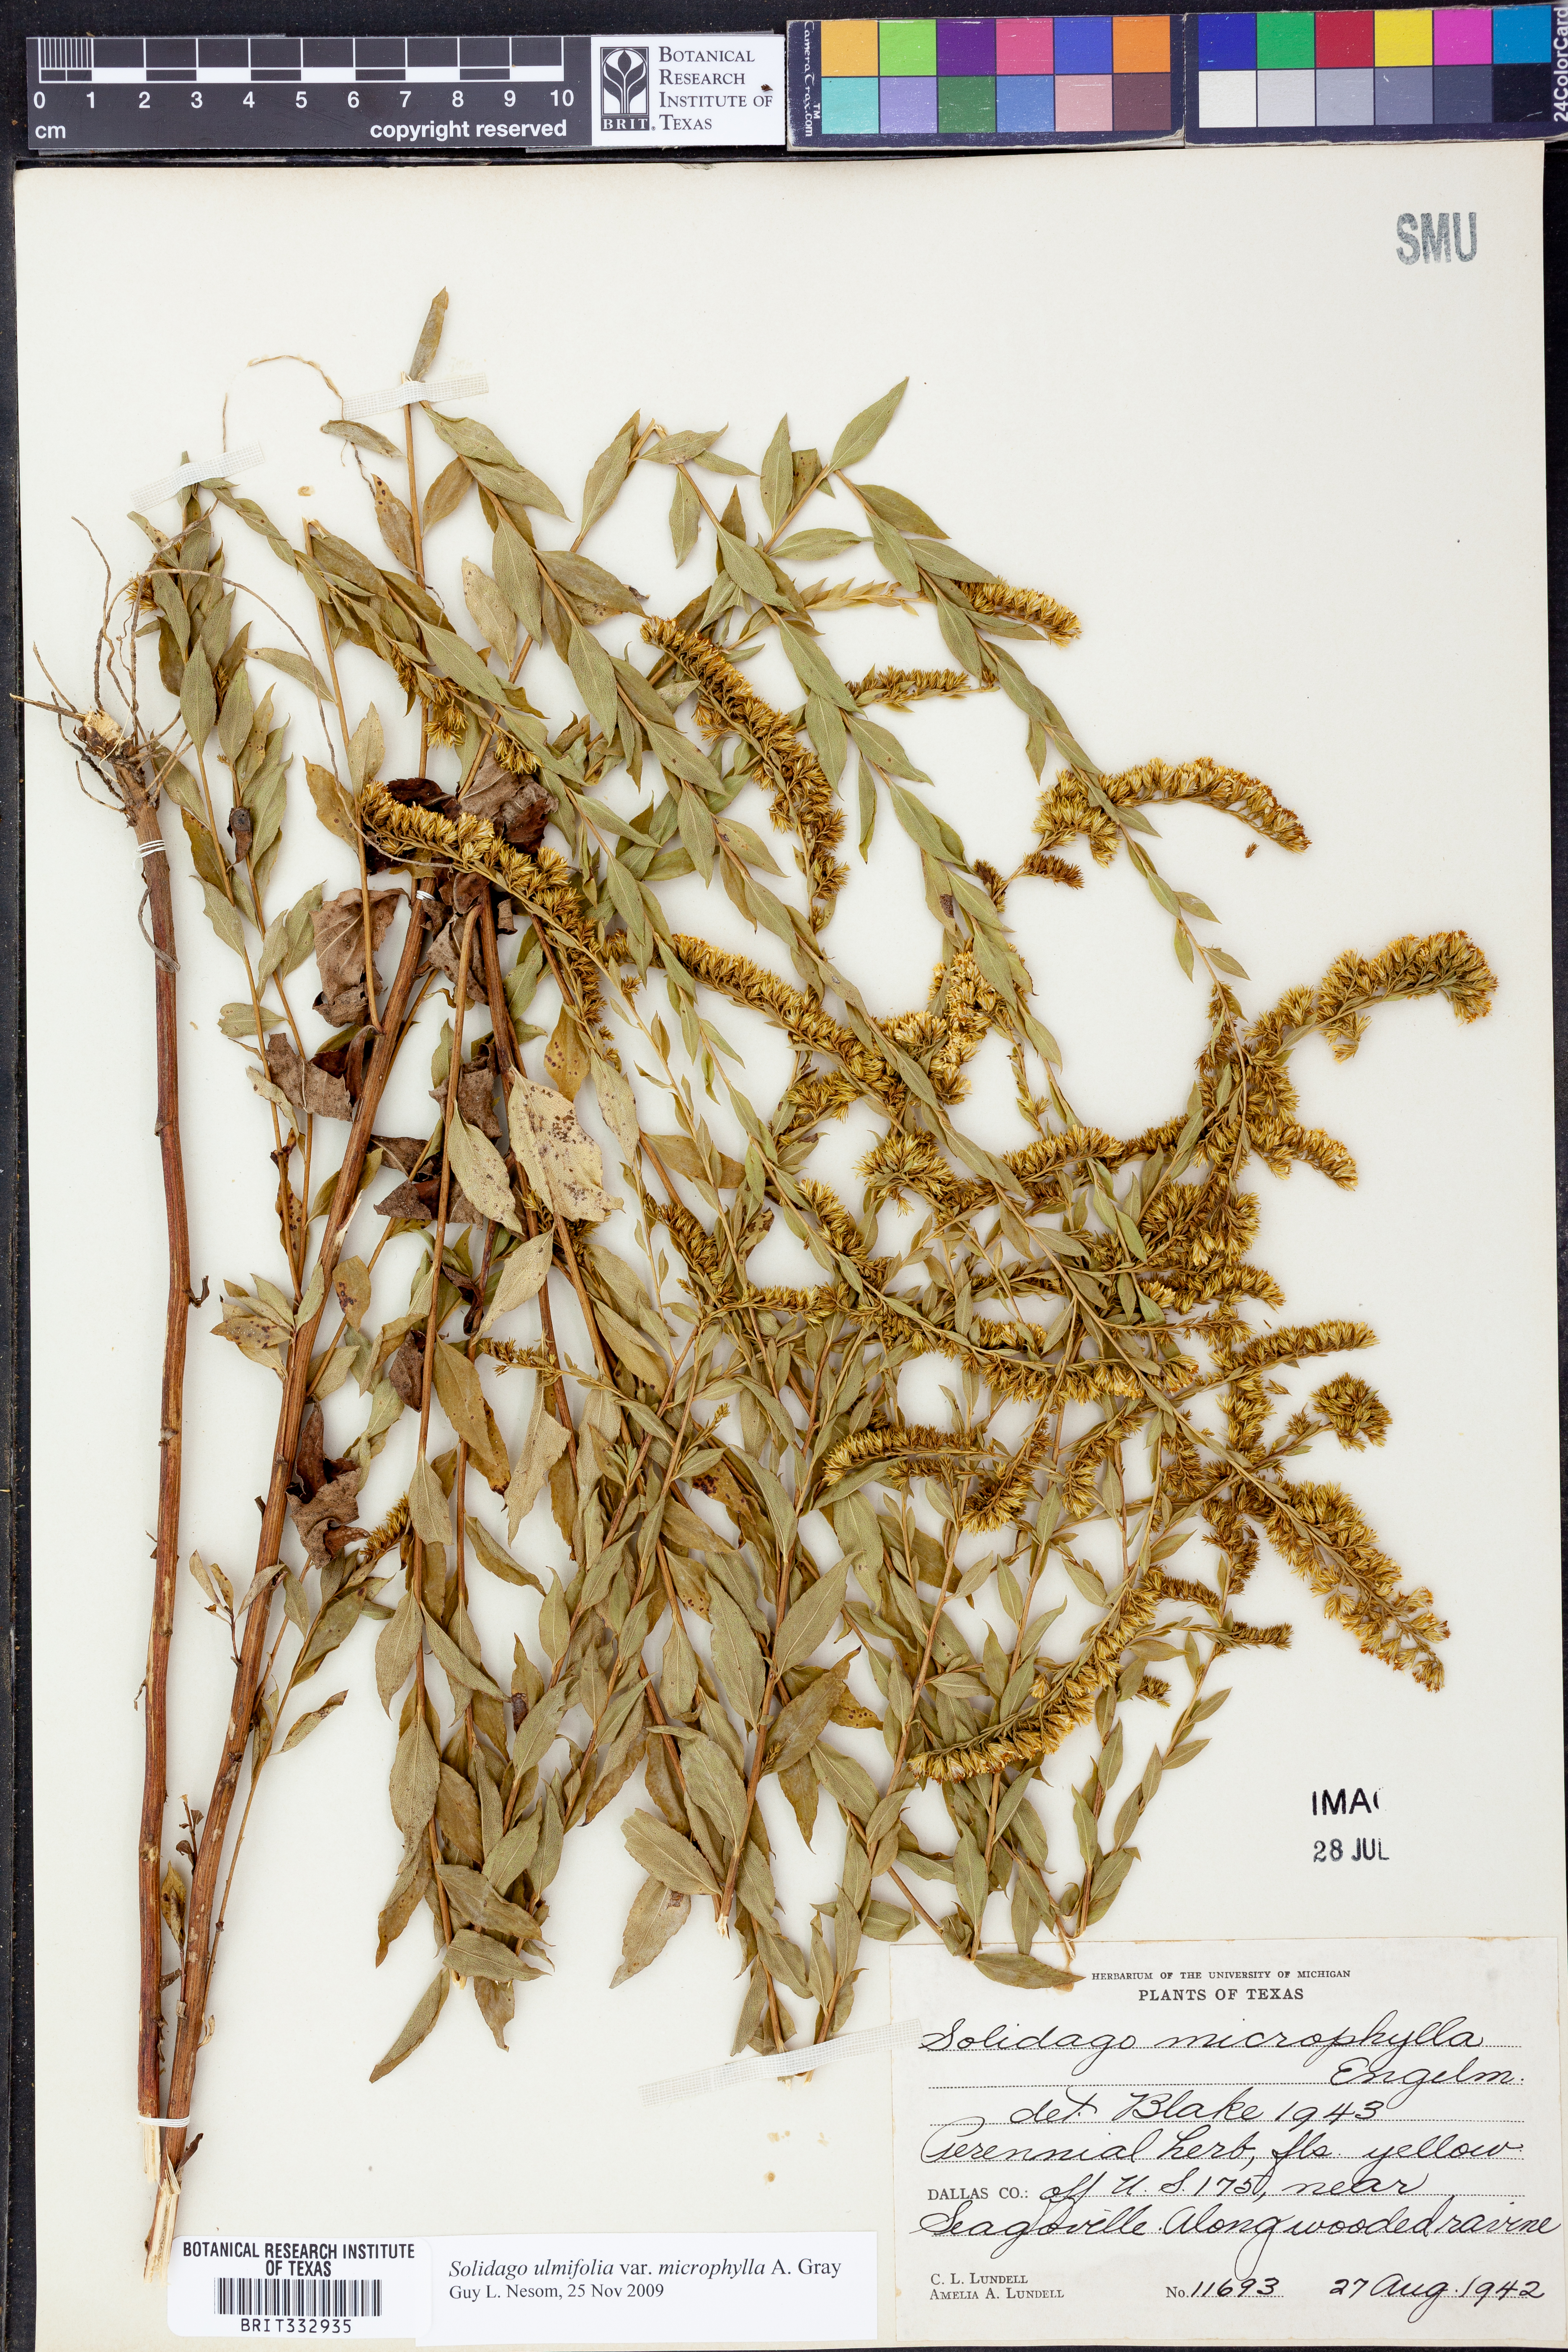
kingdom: Plantae
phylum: Tracheophyta
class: Magnoliopsida
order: Asterales
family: Asteraceae
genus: Solidago
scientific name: Solidago delicatula
